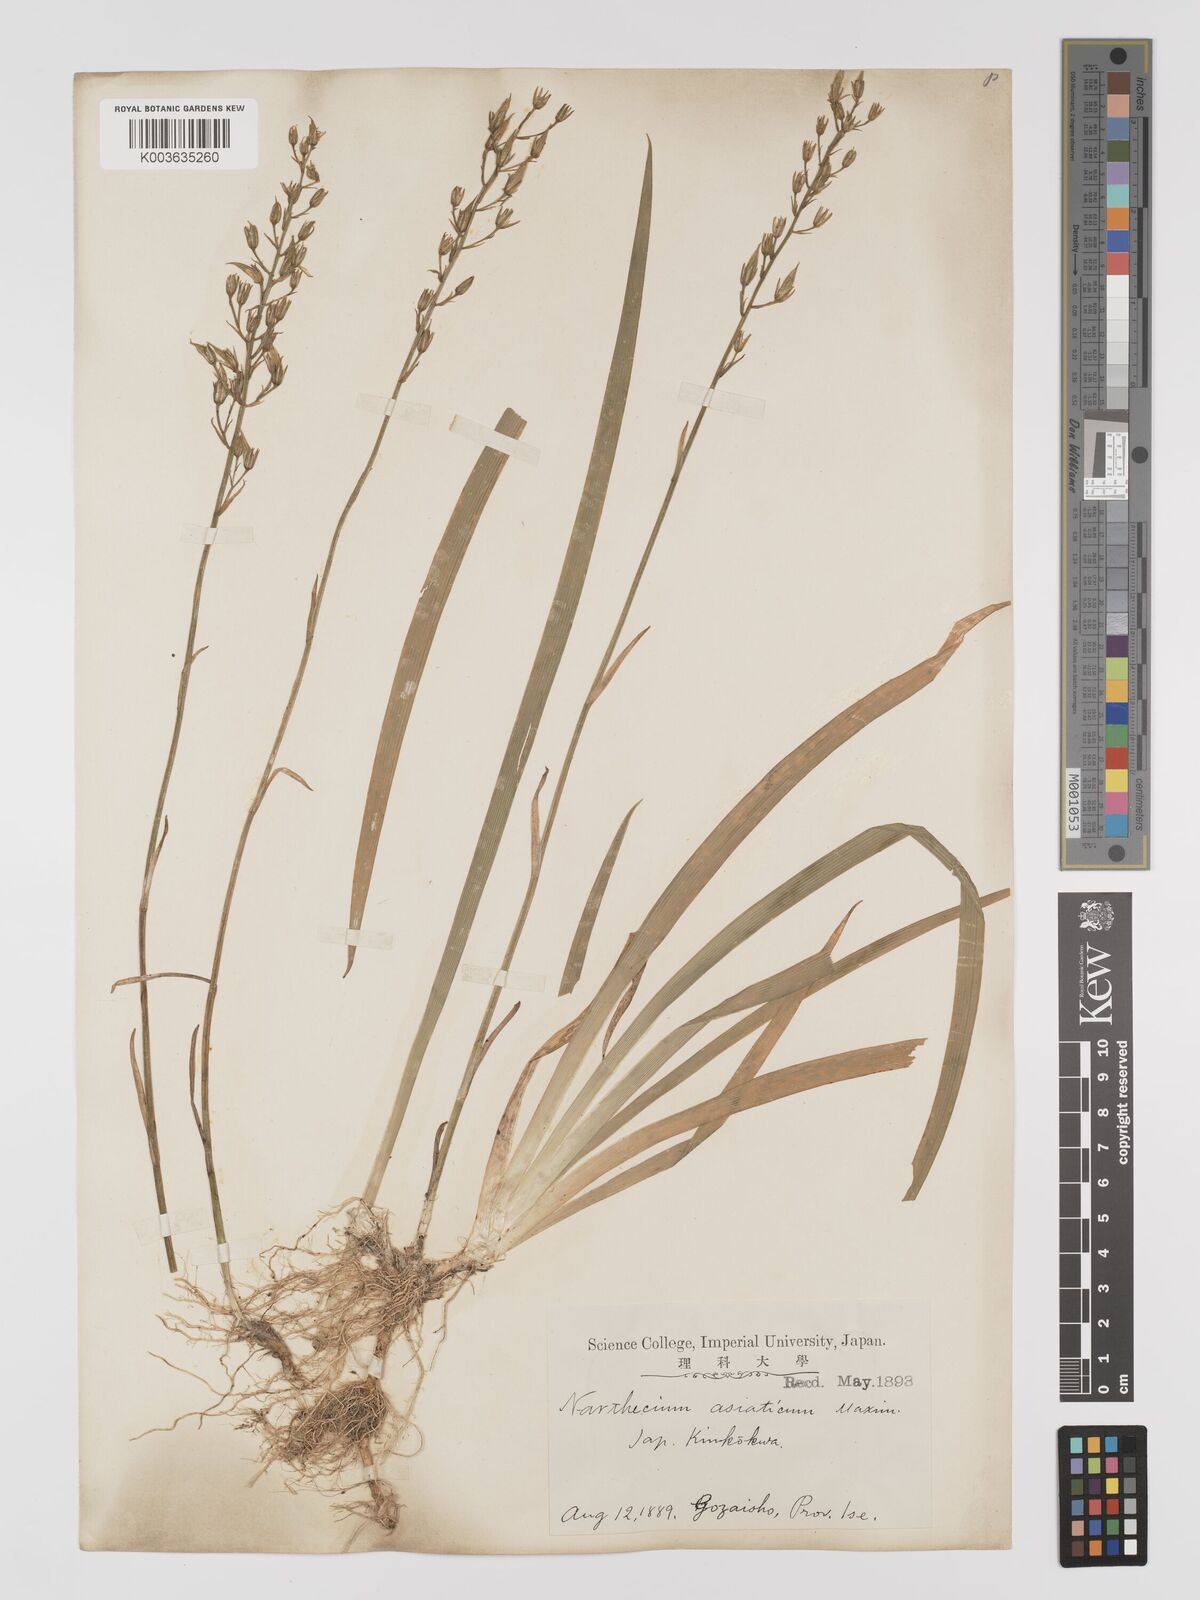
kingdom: Plantae
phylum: Tracheophyta
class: Liliopsida
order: Dioscoreales
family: Nartheciaceae
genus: Narthecium
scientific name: Narthecium asiaticum
